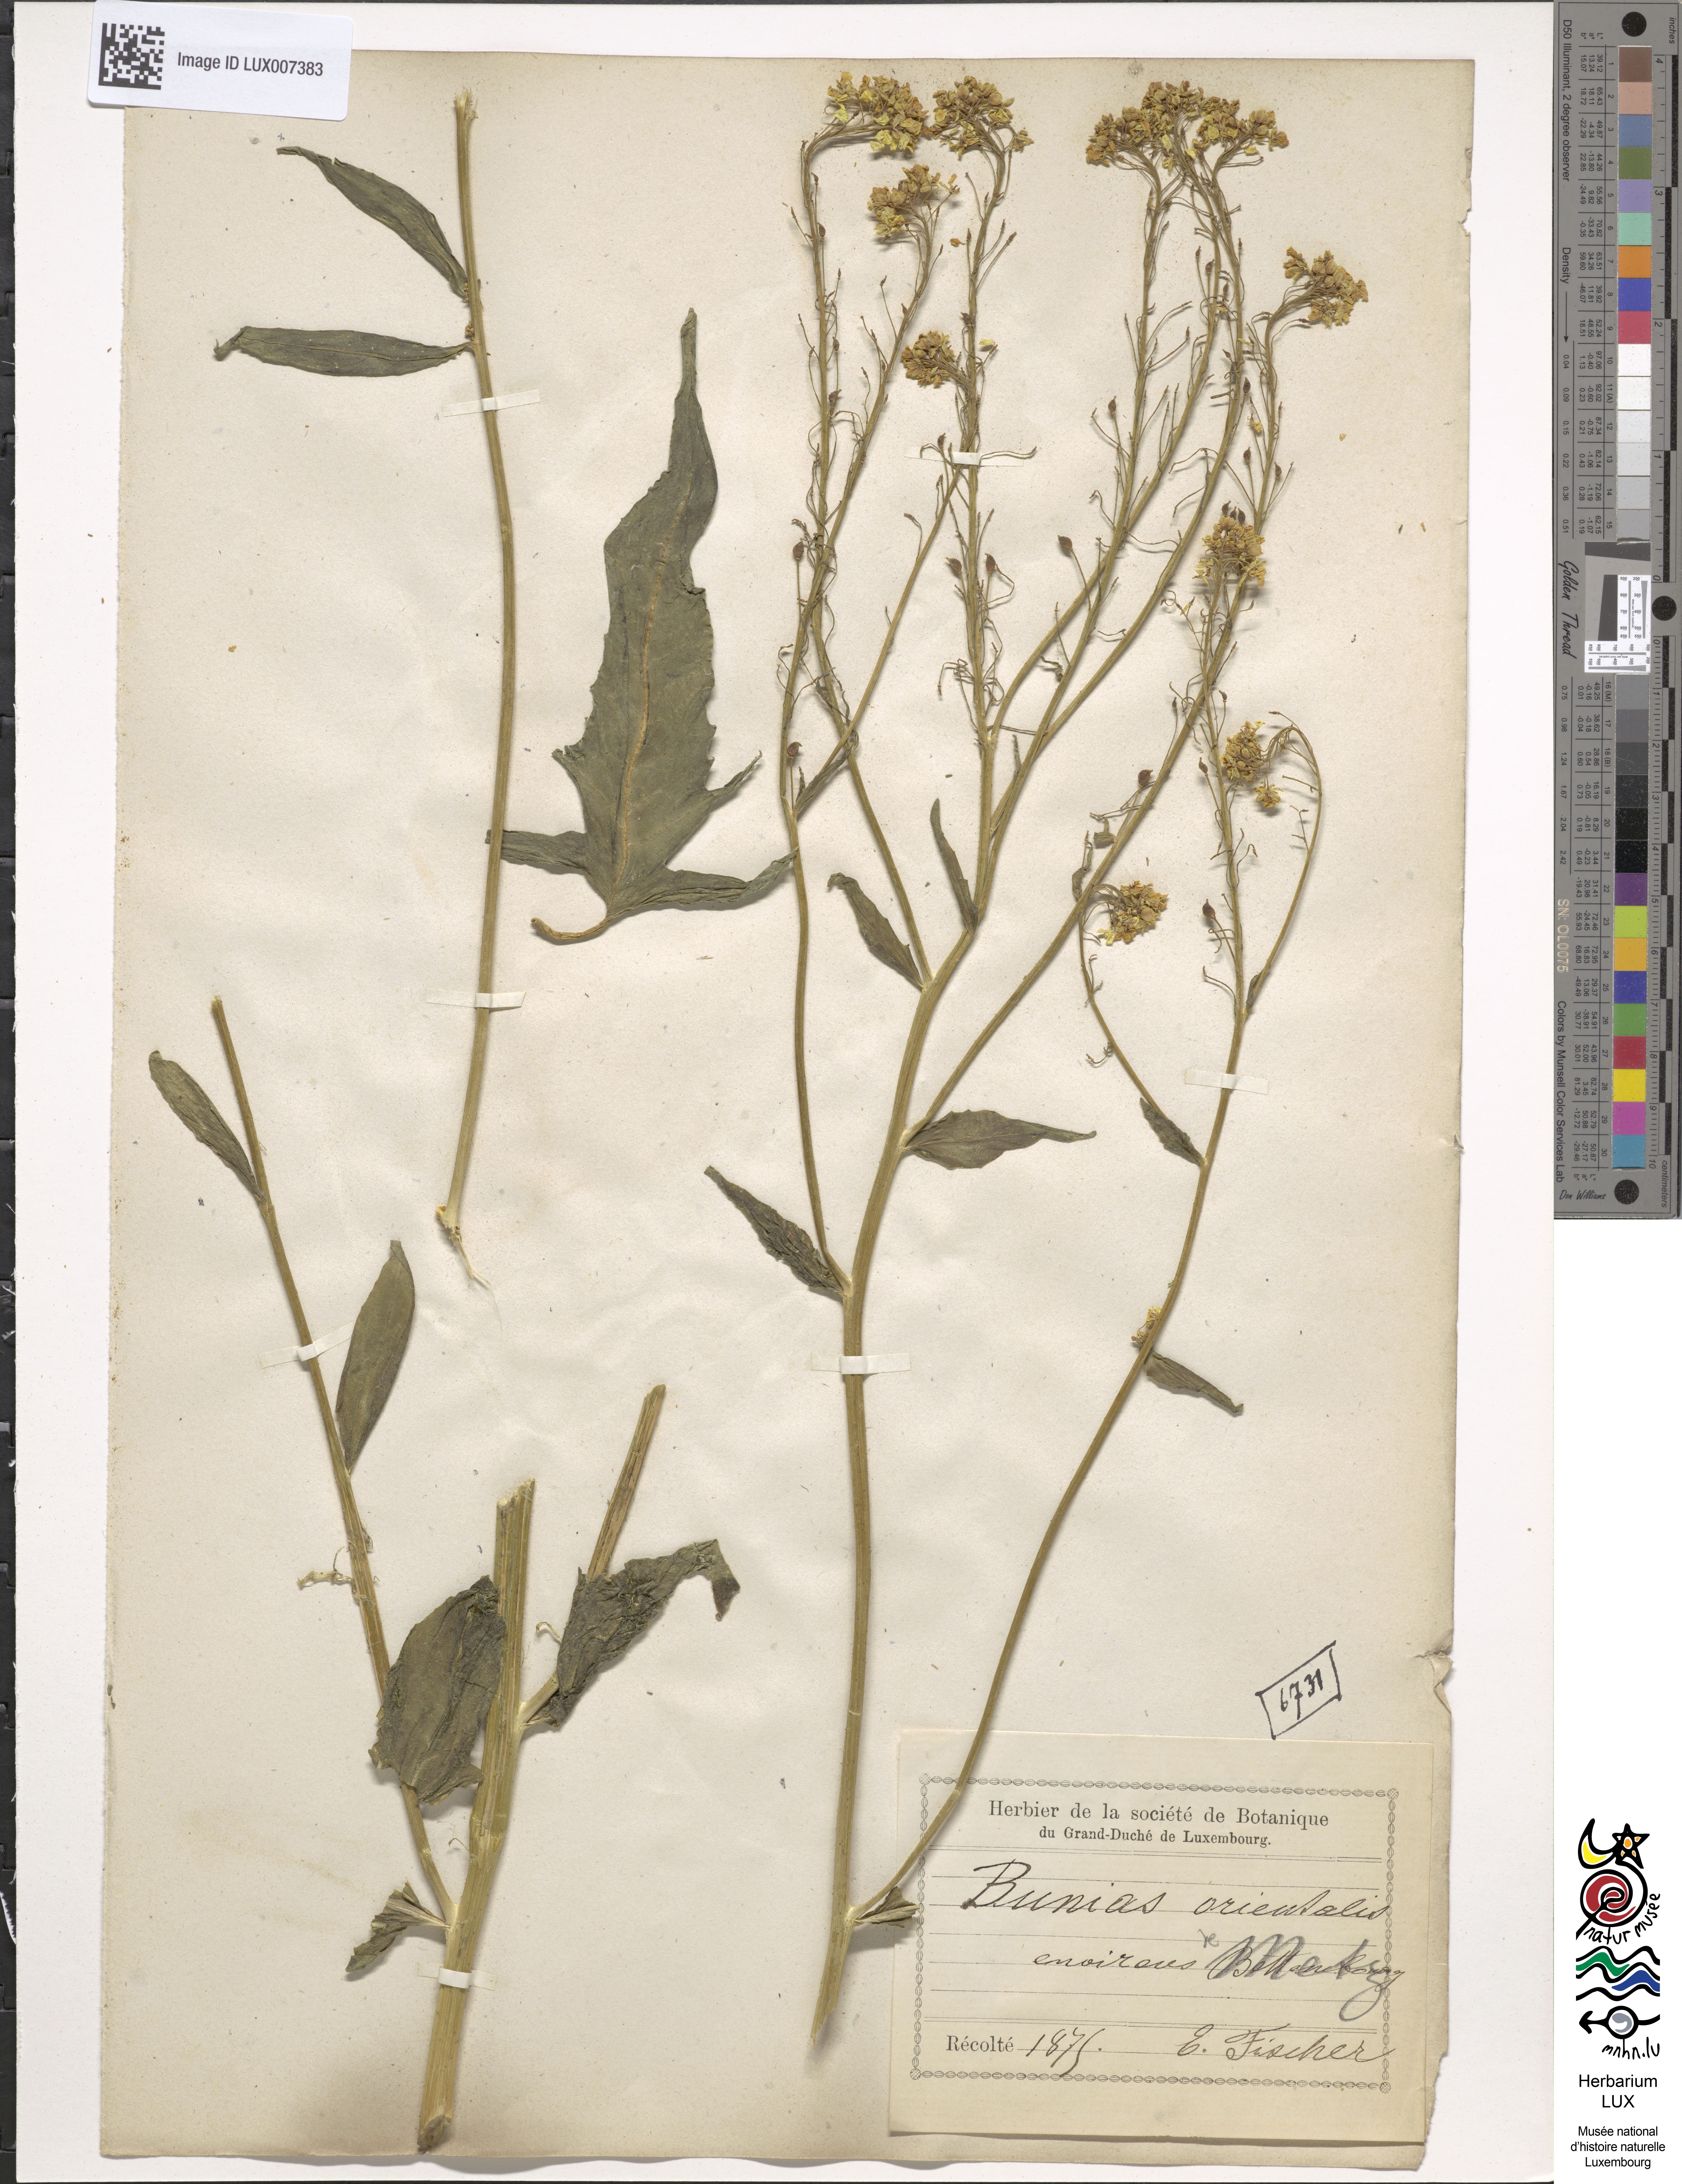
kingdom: Plantae
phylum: Tracheophyta
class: Magnoliopsida
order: Brassicales
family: Brassicaceae
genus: Bunias
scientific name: Bunias orientalis
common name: Warty-cabbage
